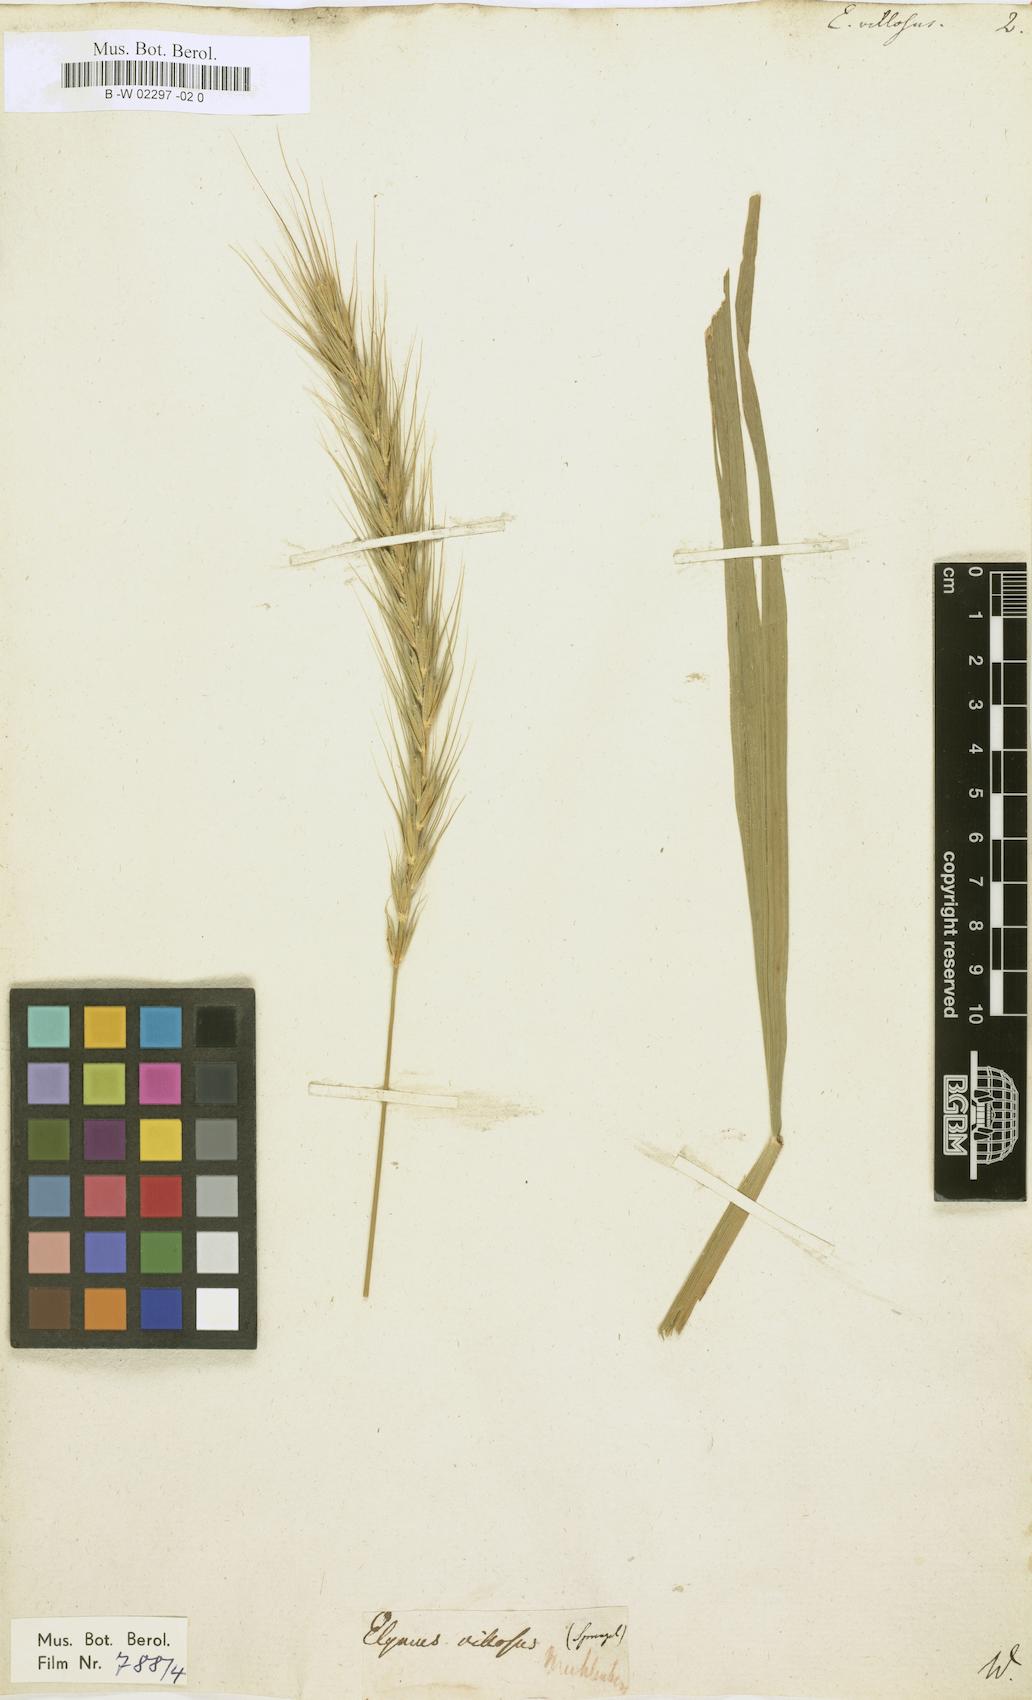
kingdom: Plantae
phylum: Tracheophyta
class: Liliopsida
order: Poales
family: Poaceae
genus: Elymus
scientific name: Elymus villosus
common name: Downy wild rye
